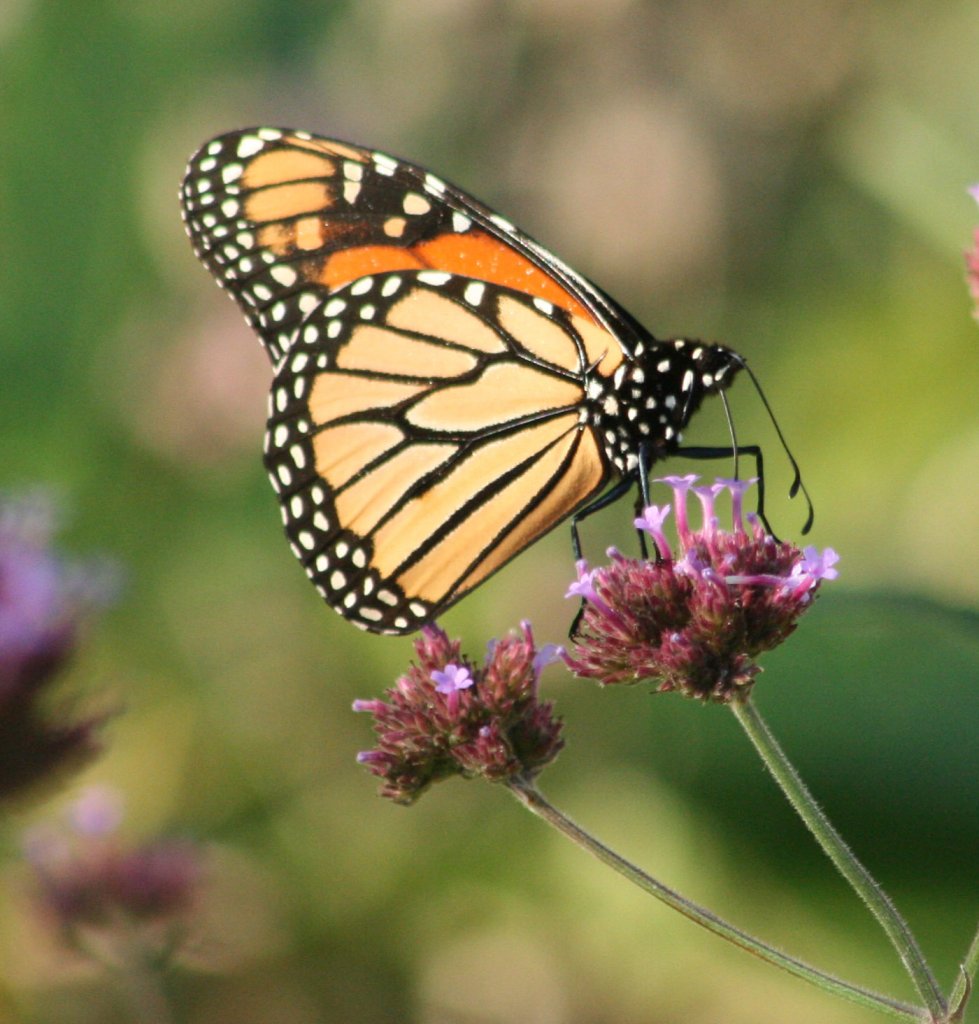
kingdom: Animalia
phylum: Arthropoda
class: Insecta
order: Lepidoptera
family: Nymphalidae
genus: Danaus
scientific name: Danaus plexippus
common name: Monarch
